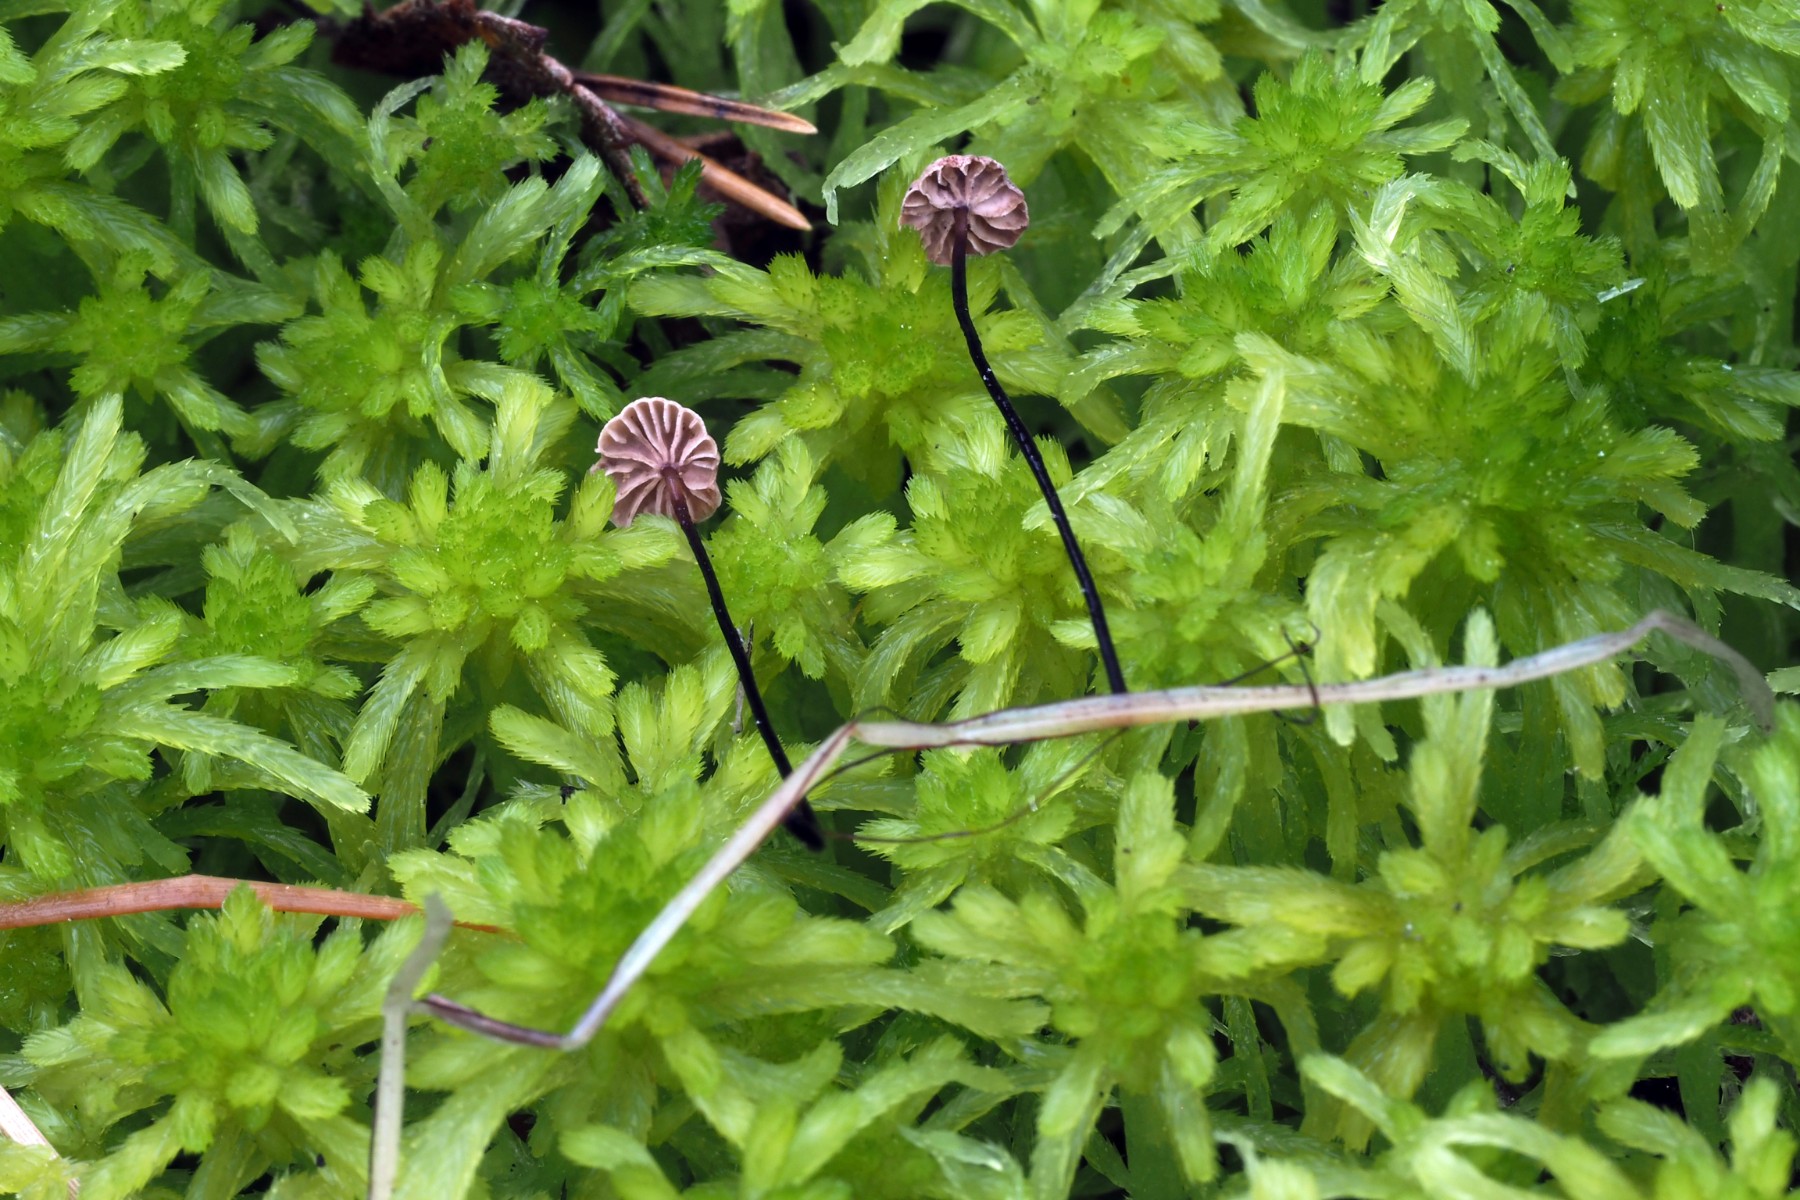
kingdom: Fungi
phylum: Basidiomycota
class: Agaricomycetes
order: Agaricales
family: Omphalotaceae
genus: Gymnopus
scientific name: Gymnopus androsaceus
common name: trådstokket fladhat
